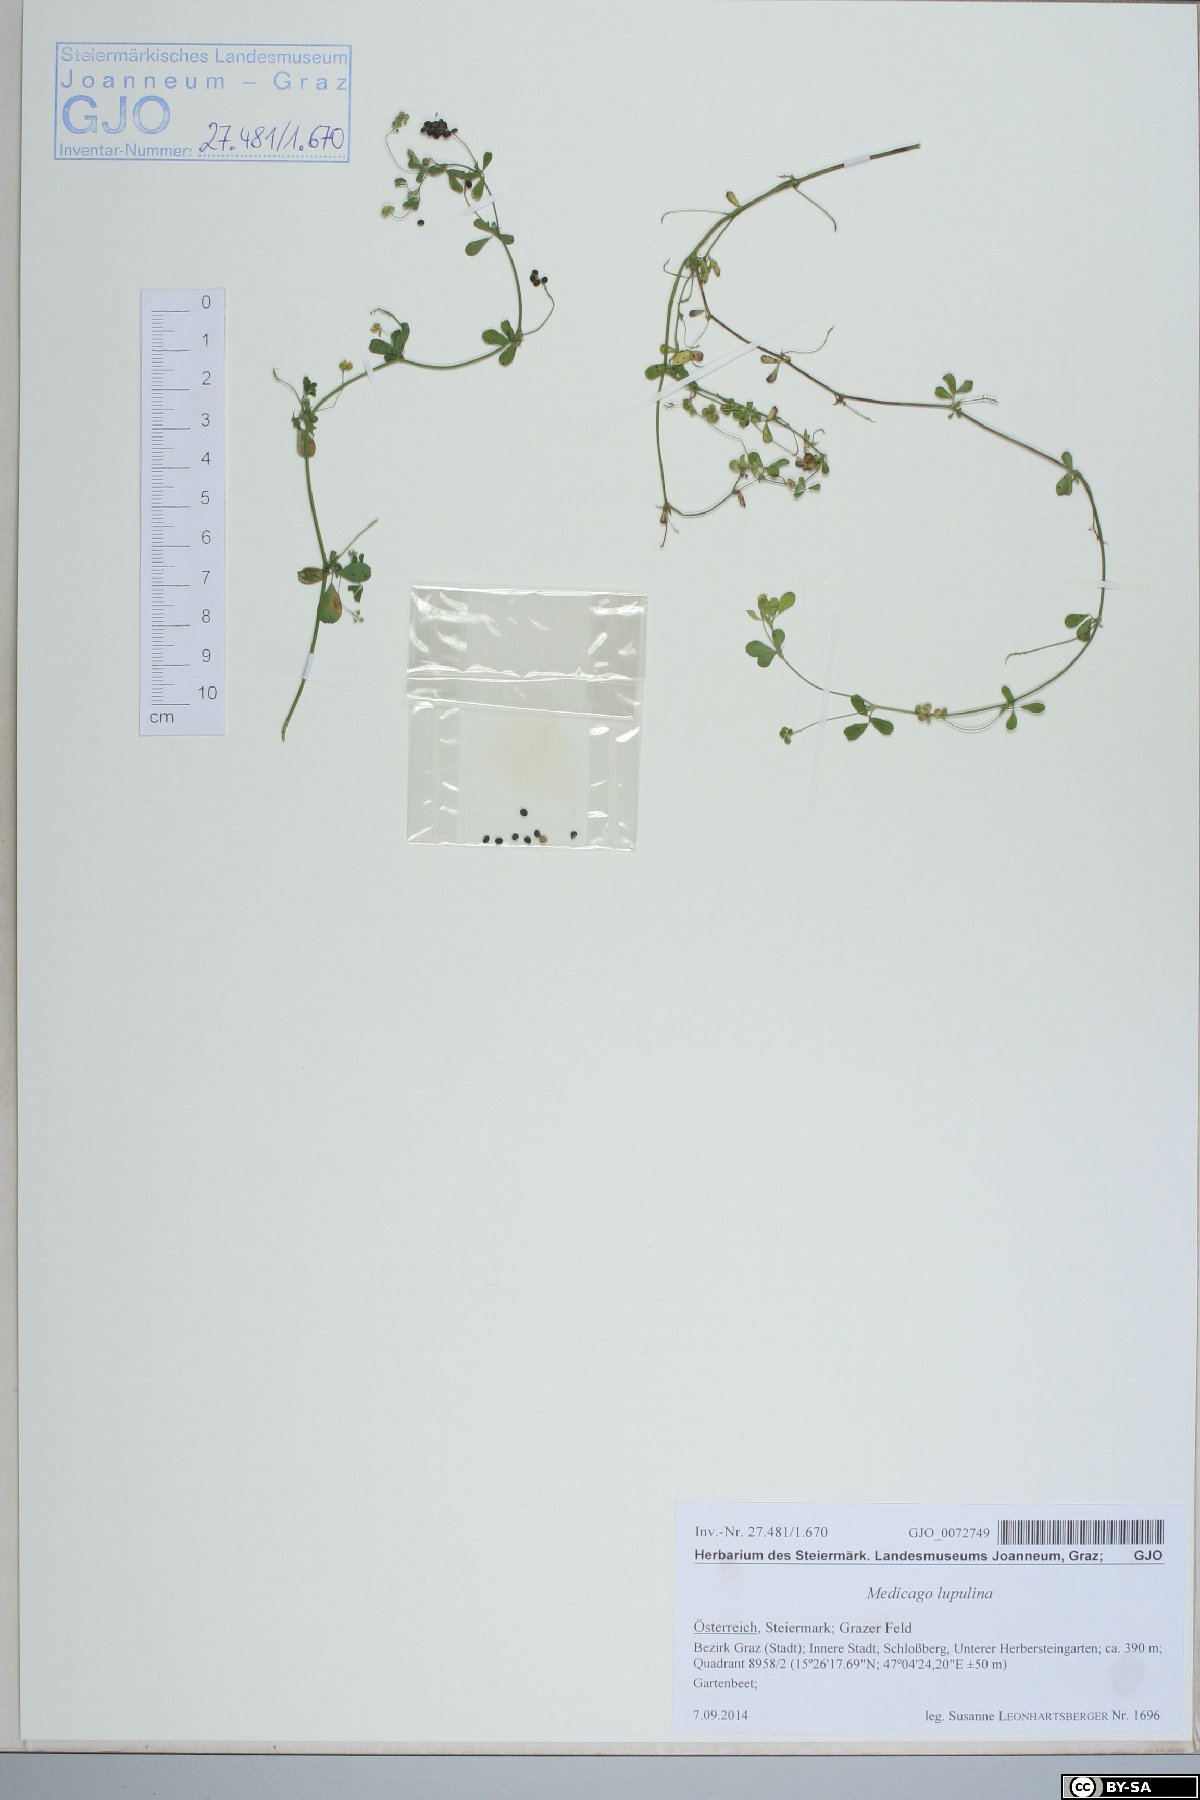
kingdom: Plantae
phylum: Tracheophyta
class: Magnoliopsida
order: Fabales
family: Fabaceae
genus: Medicago
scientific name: Medicago lupulina
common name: Black medick
